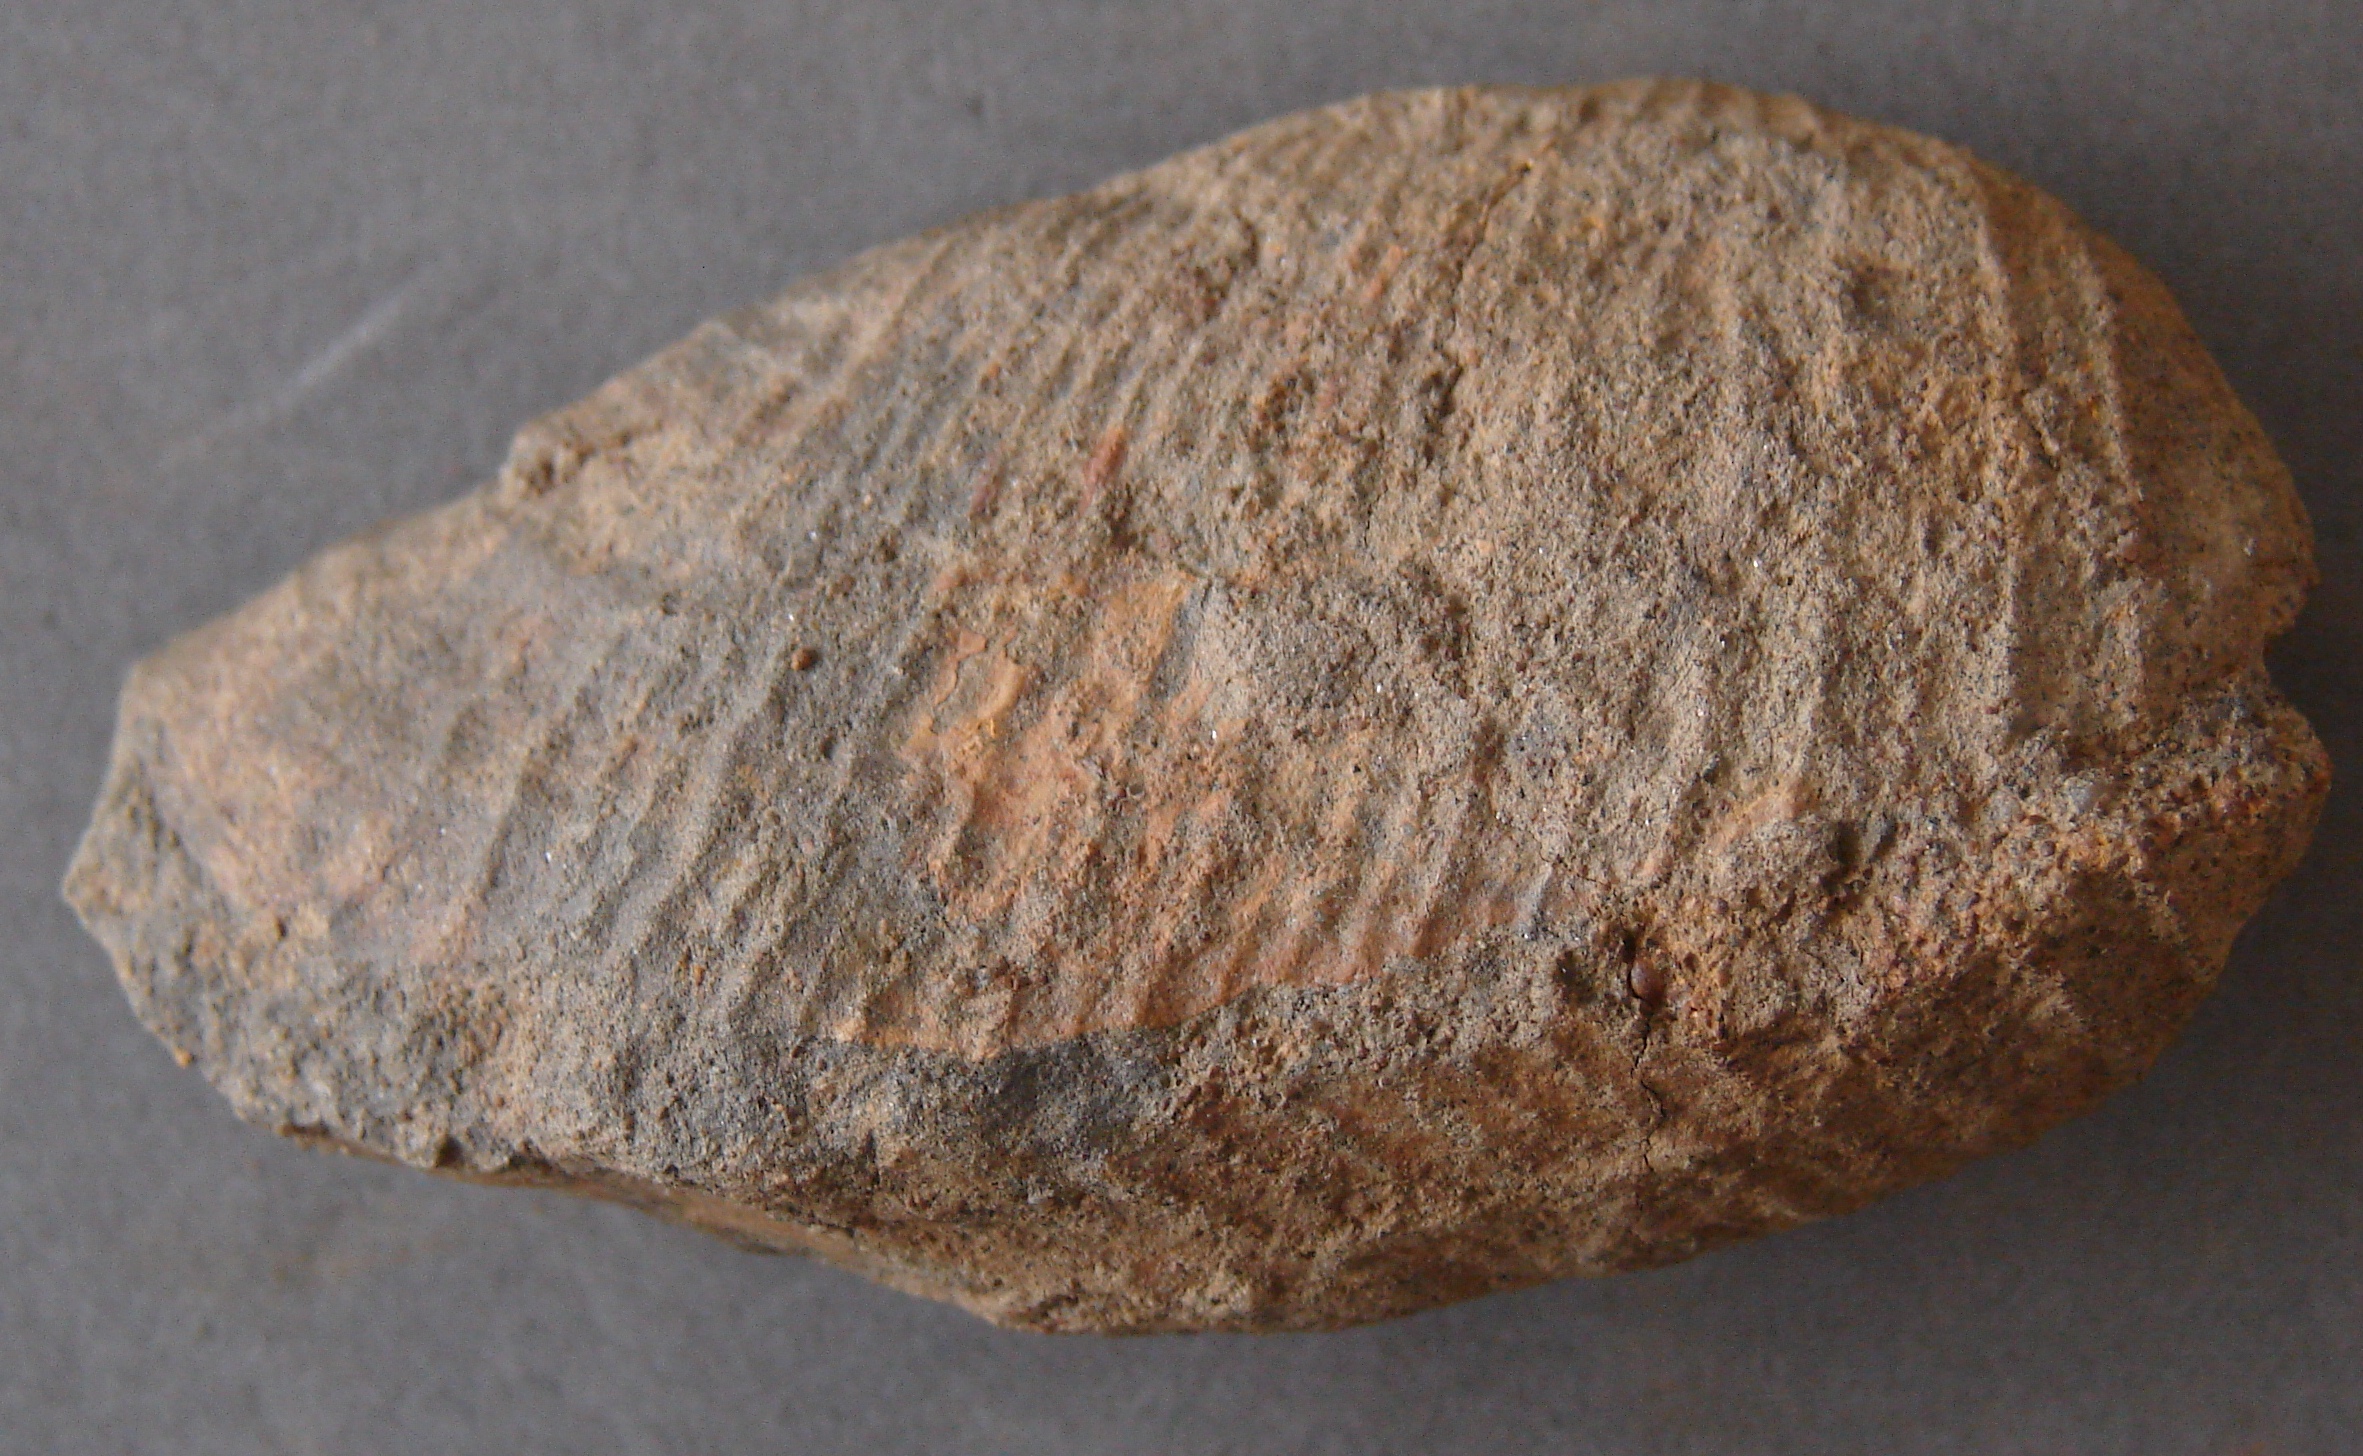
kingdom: Animalia
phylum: Mollusca
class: Bivalvia
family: Pholadomyidae
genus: Pholadomya
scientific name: Pholadomya fidicula
